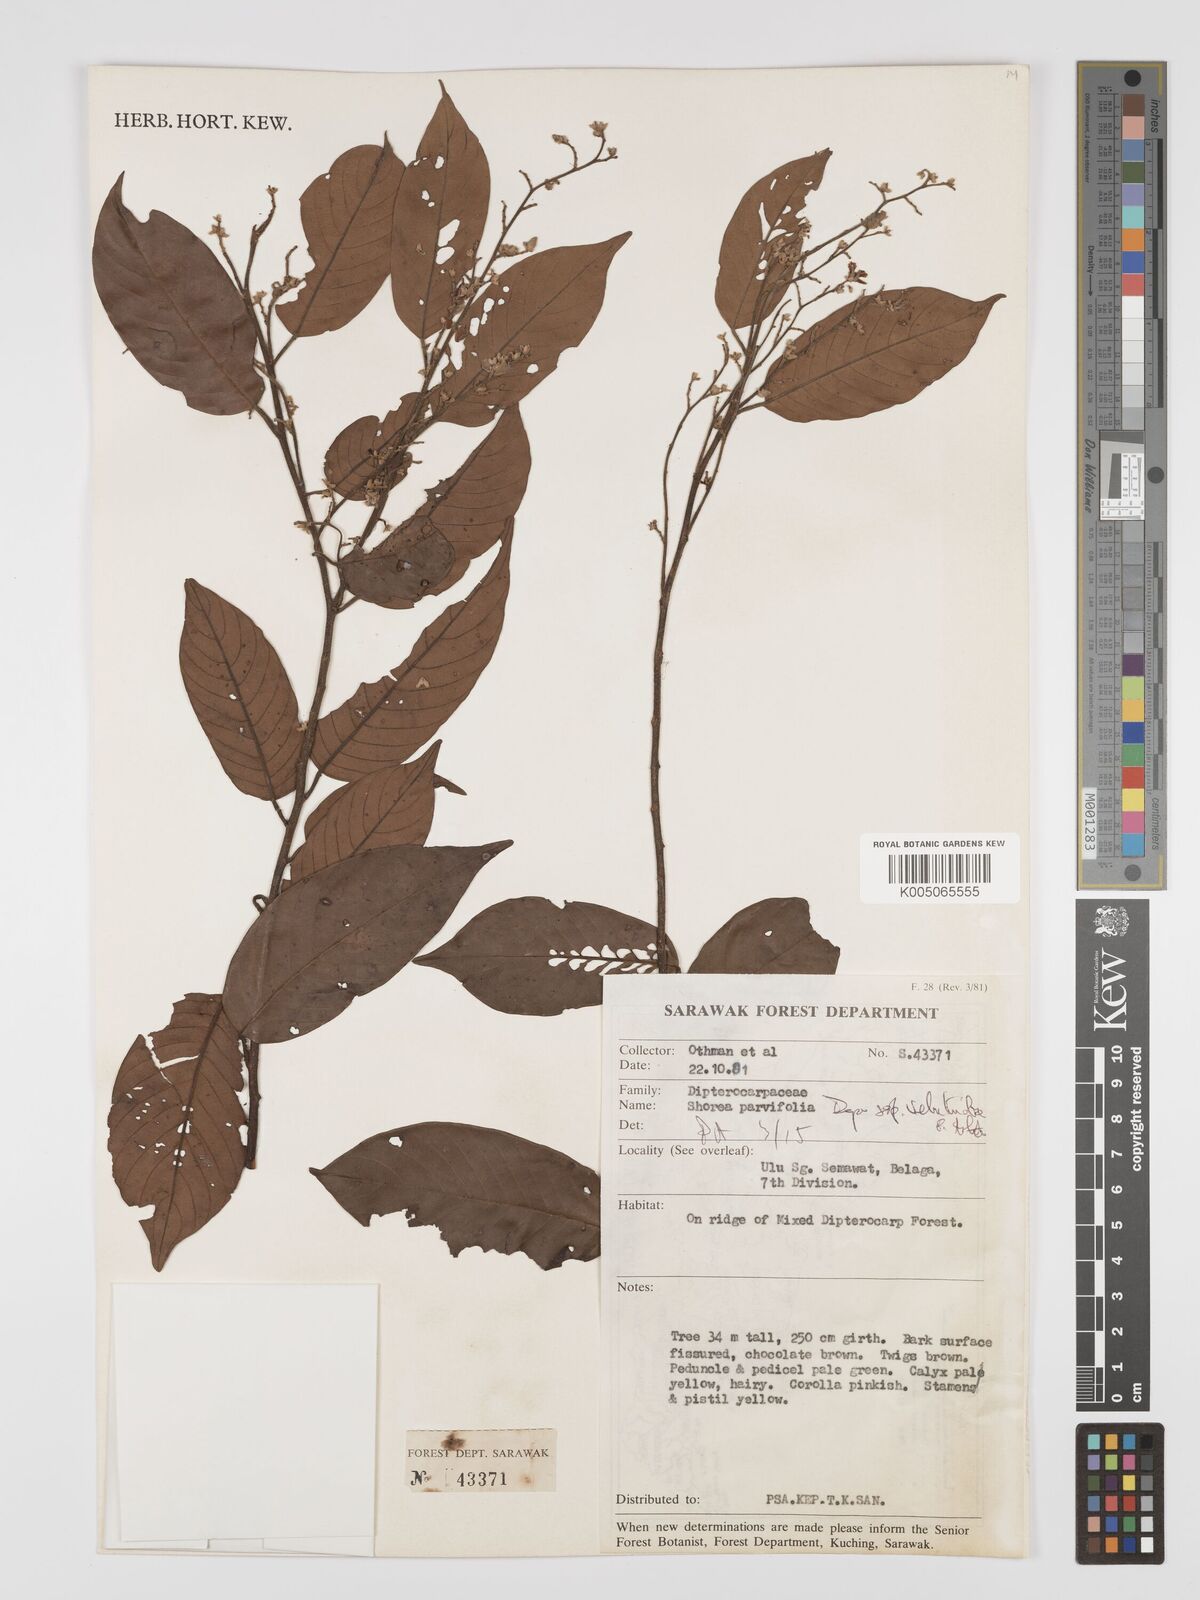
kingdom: Plantae
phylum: Tracheophyta
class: Magnoliopsida
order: Malvales
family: Dipterocarpaceae
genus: Shorea
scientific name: Shorea parvifolia
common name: Light red meranti
